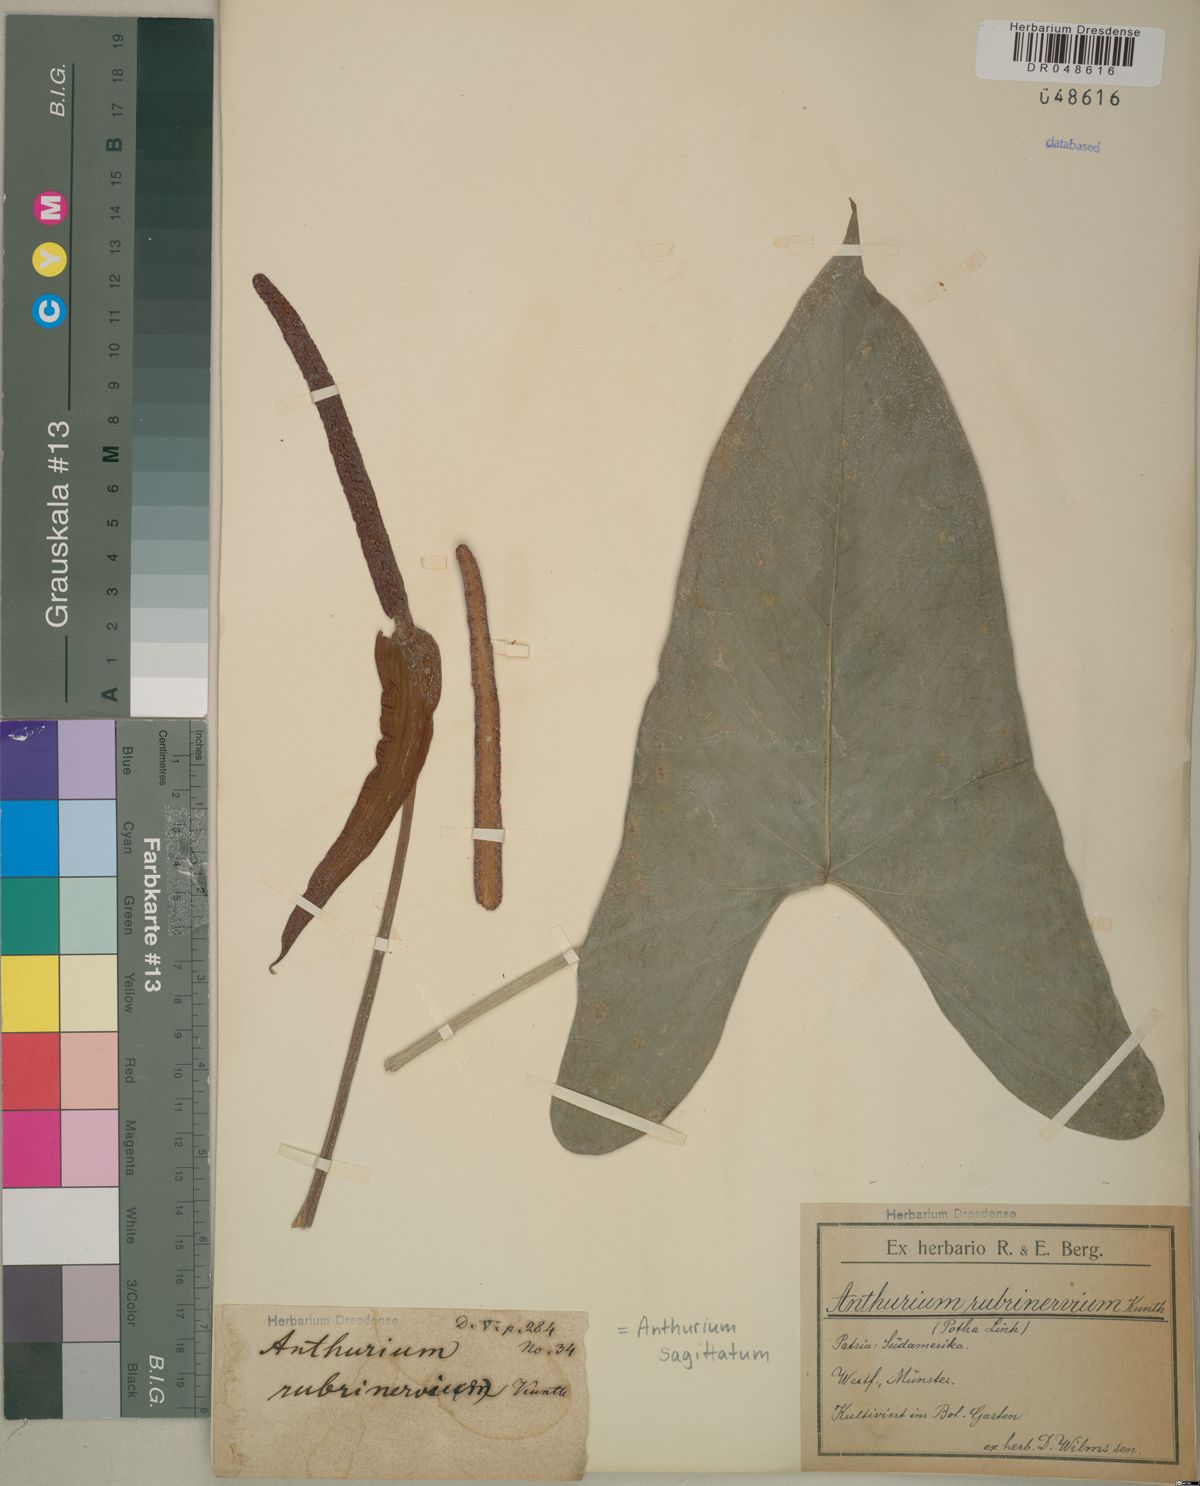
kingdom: Plantae
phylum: Tracheophyta
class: Liliopsida
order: Alismatales
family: Araceae
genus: Anthurium
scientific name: Anthurium sagittatum
